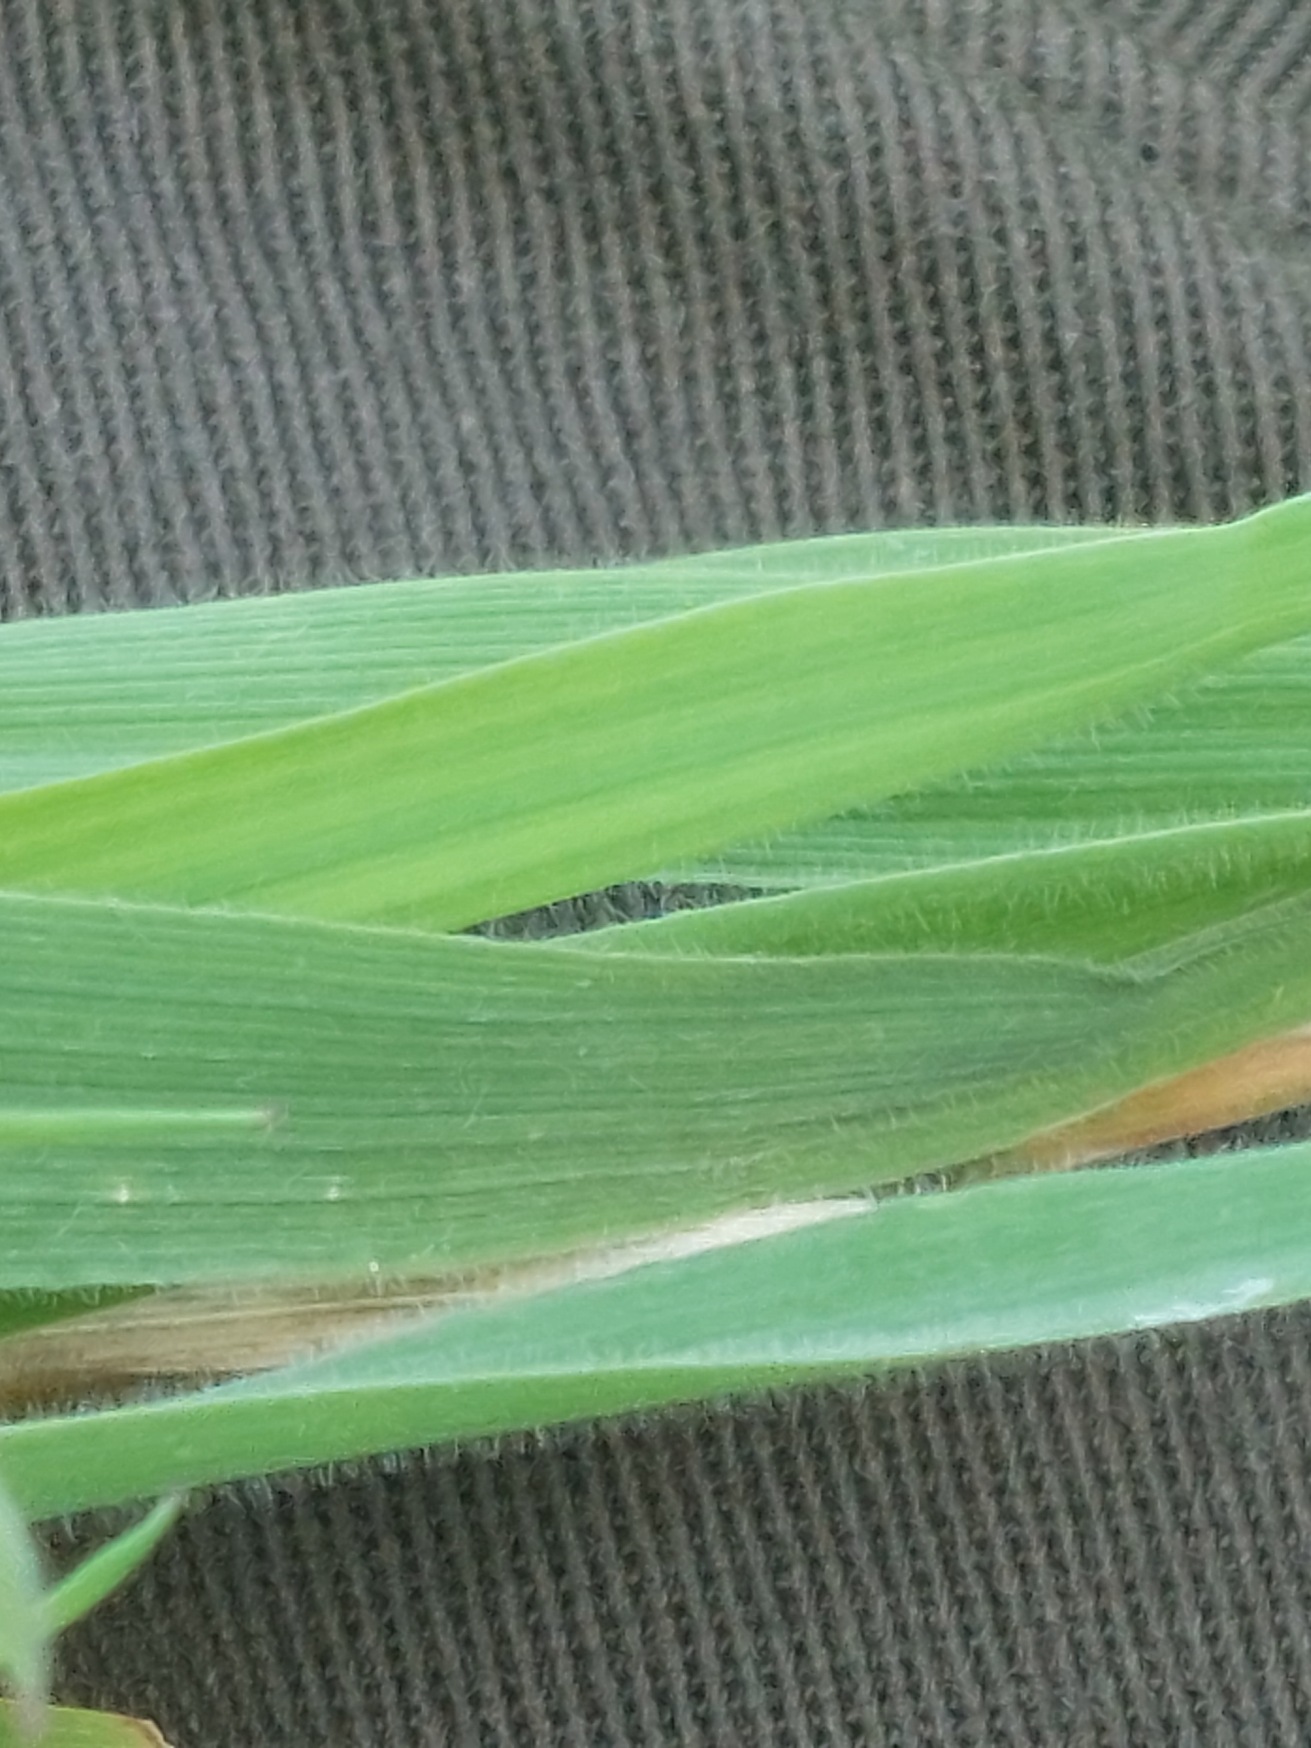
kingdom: Plantae
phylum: Tracheophyta
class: Liliopsida
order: Poales
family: Poaceae
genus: Holcus
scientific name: Holcus lanatus
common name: Fløjlsgræs
